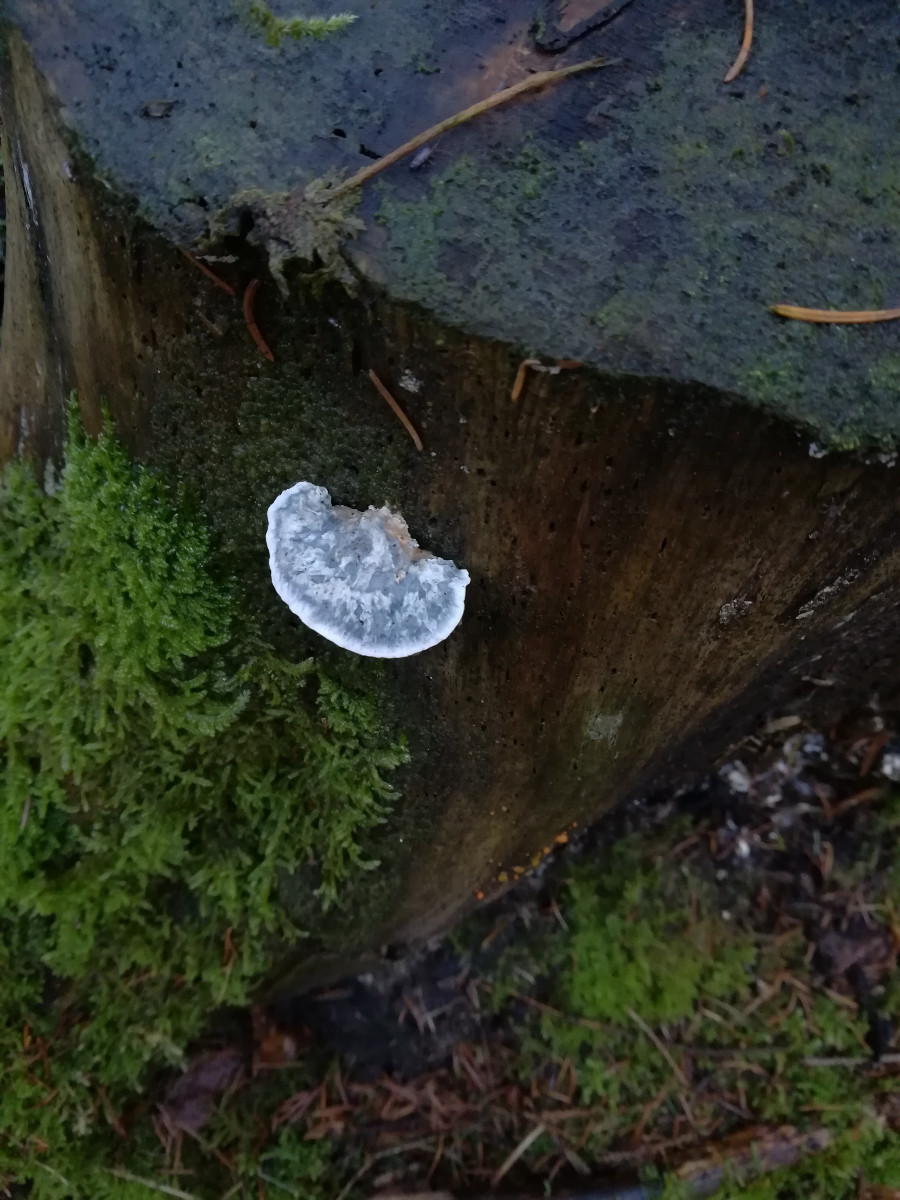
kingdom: Fungi
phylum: Basidiomycota
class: Agaricomycetes
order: Polyporales
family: Polyporaceae
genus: Cyanosporus
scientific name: Cyanosporus caesius
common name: blålig kødporesvamp
